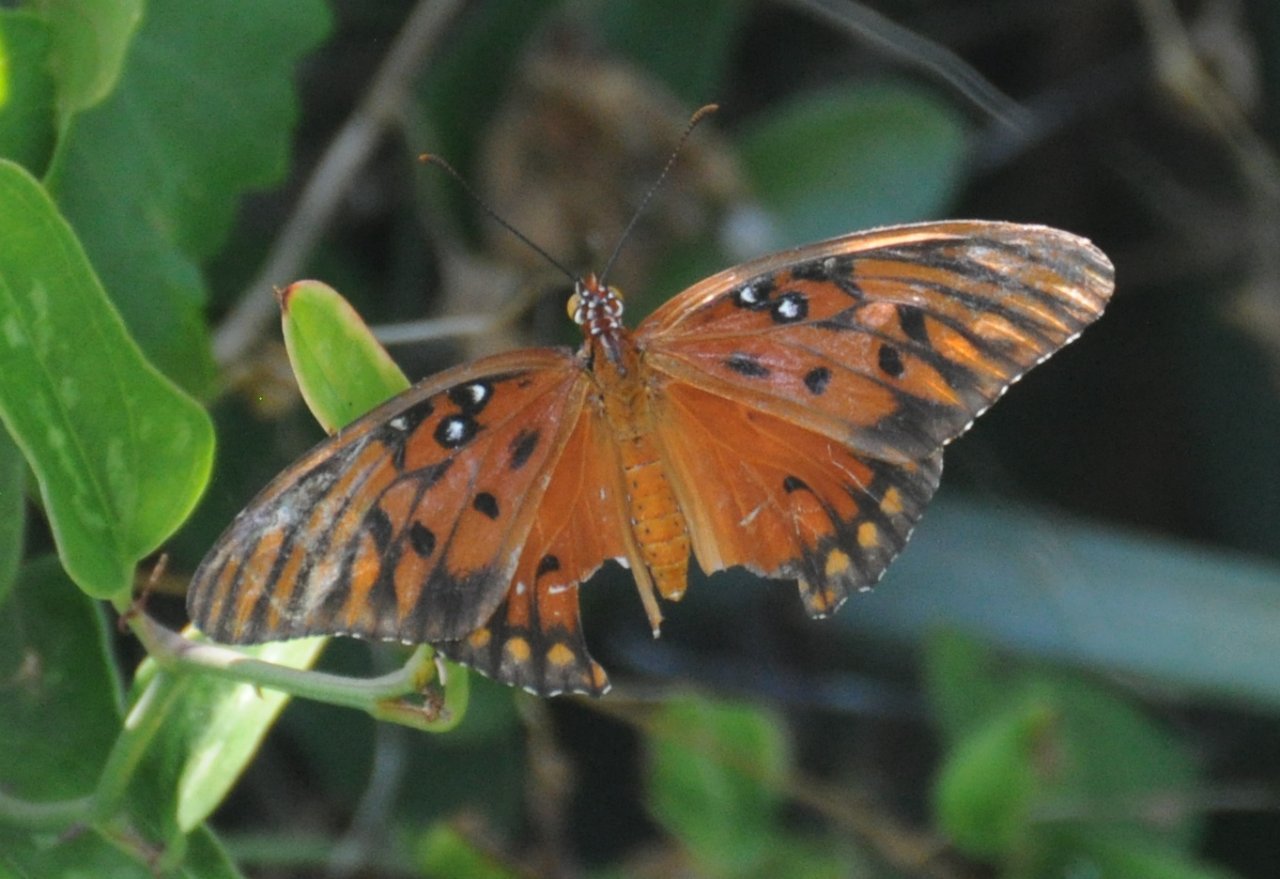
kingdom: Animalia
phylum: Arthropoda
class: Insecta
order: Lepidoptera
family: Nymphalidae
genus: Dione
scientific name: Dione vanillae
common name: Gulf Fritillary
